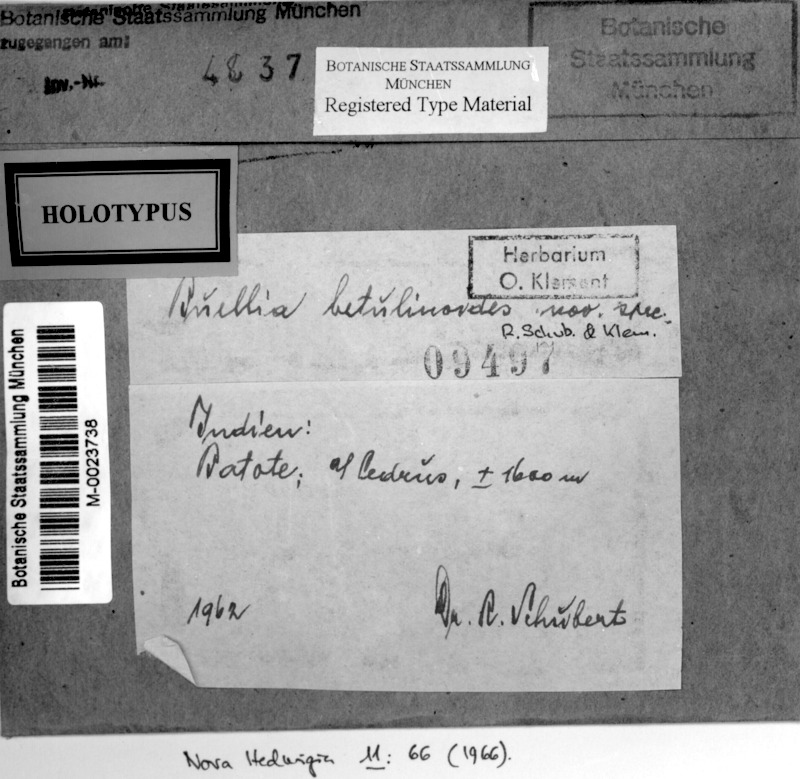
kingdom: Fungi
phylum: Ascomycota
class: Lecanoromycetes
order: Caliciales
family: Caliciaceae
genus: Buellia
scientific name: Buellia
